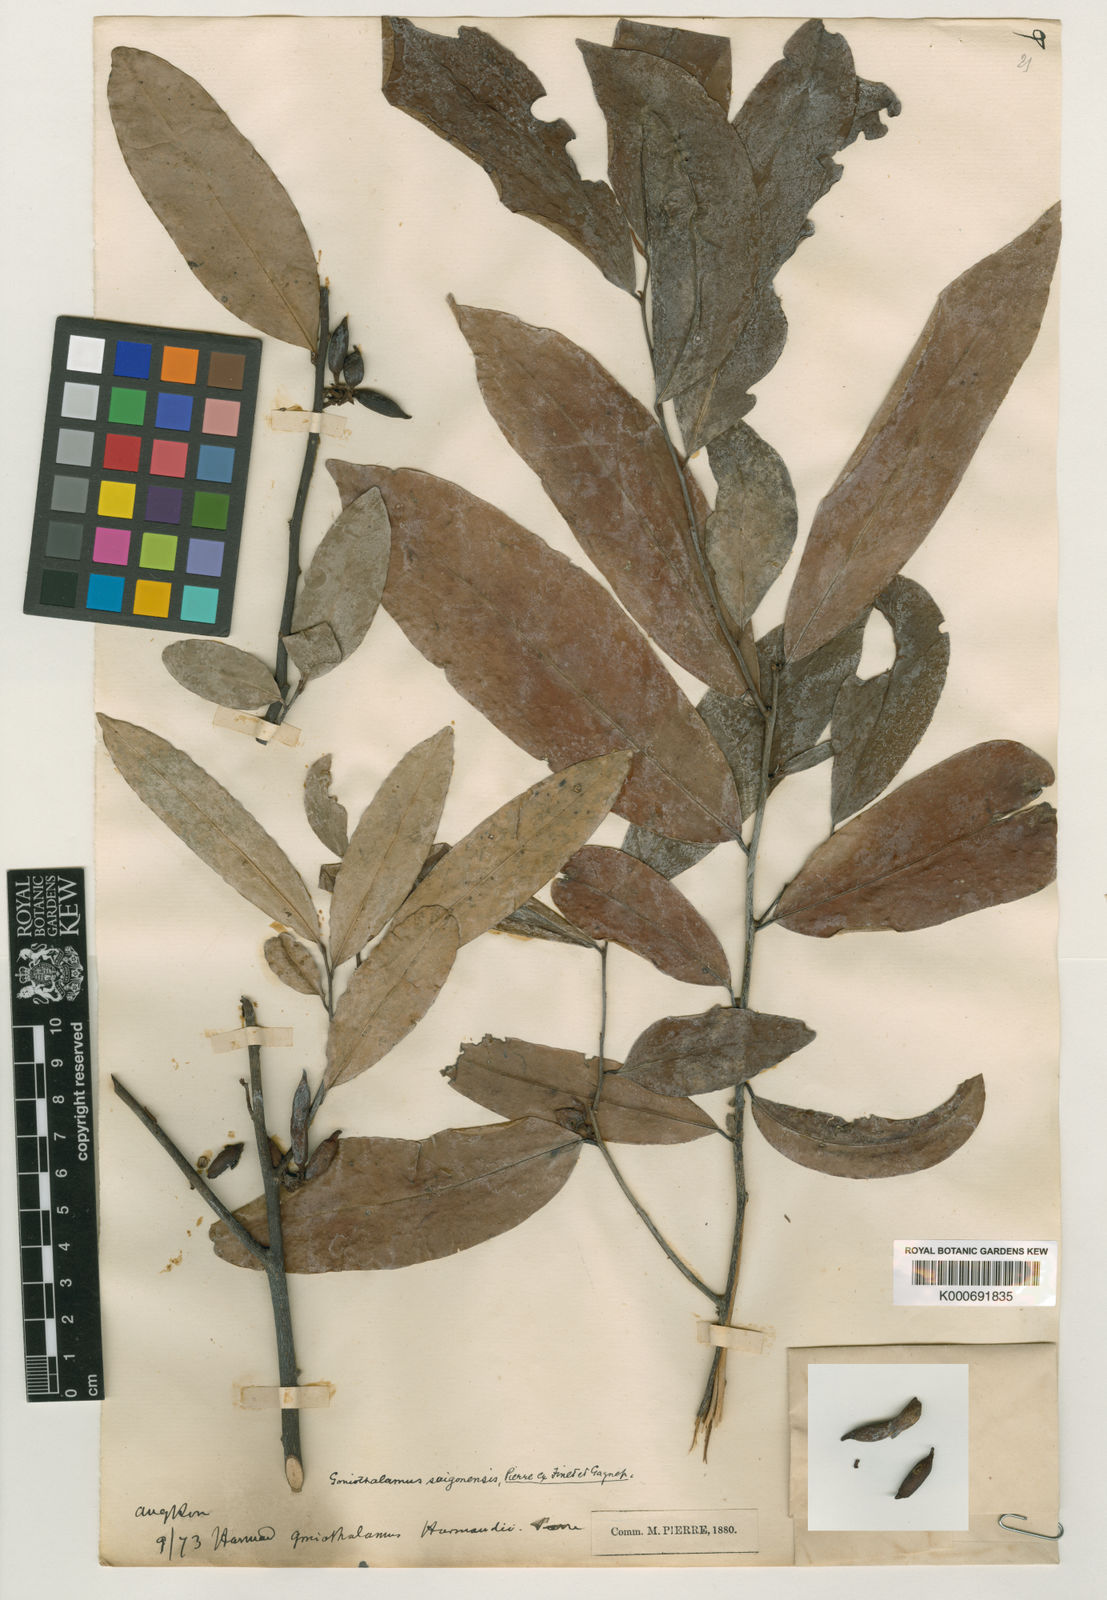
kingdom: Plantae
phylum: Tracheophyta
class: Magnoliopsida
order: Magnoliales
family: Annonaceae
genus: Goniothalamus
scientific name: Goniothalamus gabriacianus
